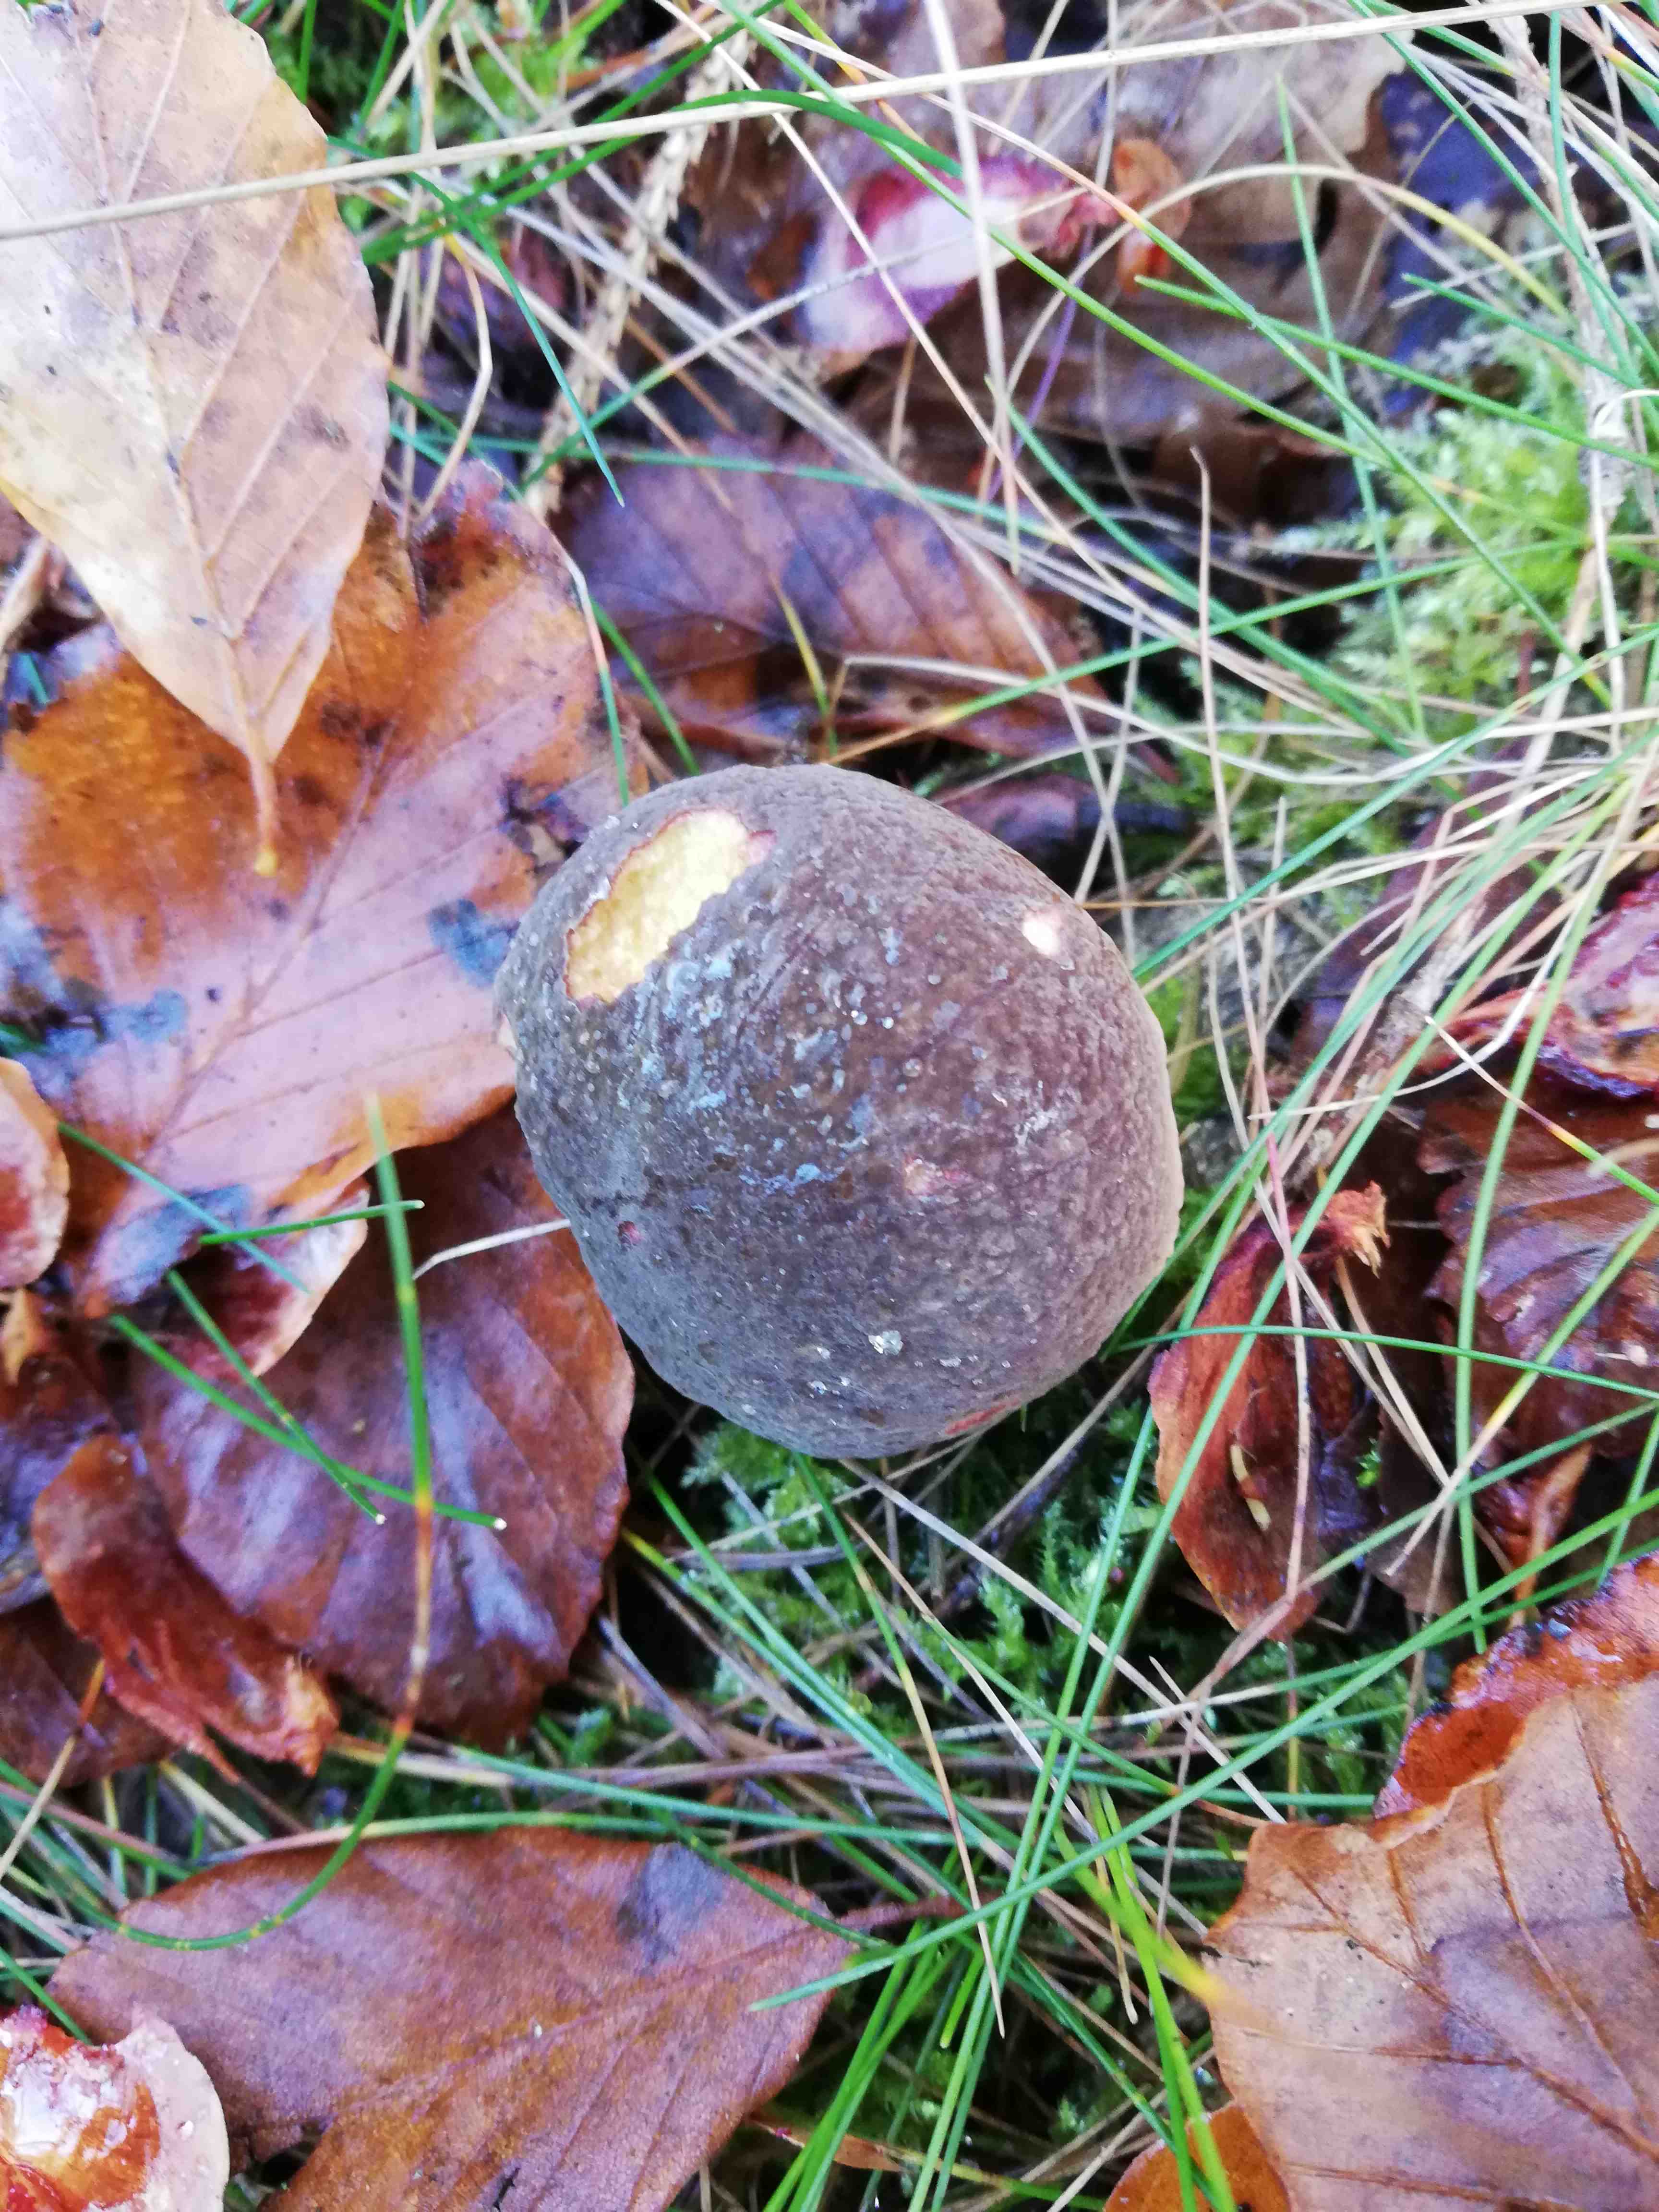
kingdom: Fungi
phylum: Basidiomycota
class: Agaricomycetes
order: Boletales
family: Boletaceae
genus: Xerocomellus
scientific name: Xerocomellus pruinatus
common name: dugget rørhat
